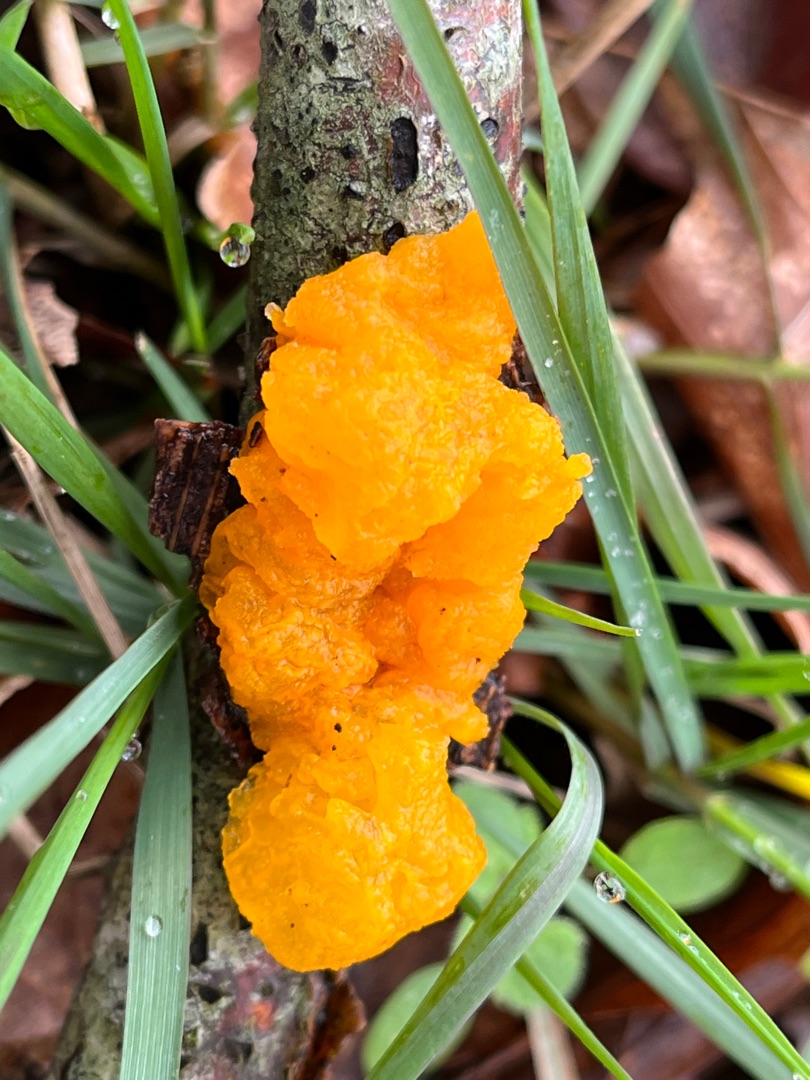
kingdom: Fungi
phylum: Basidiomycota
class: Tremellomycetes
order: Tremellales
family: Tremellaceae
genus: Tremella
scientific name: Tremella mesenterica
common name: Gul bævresvamp
